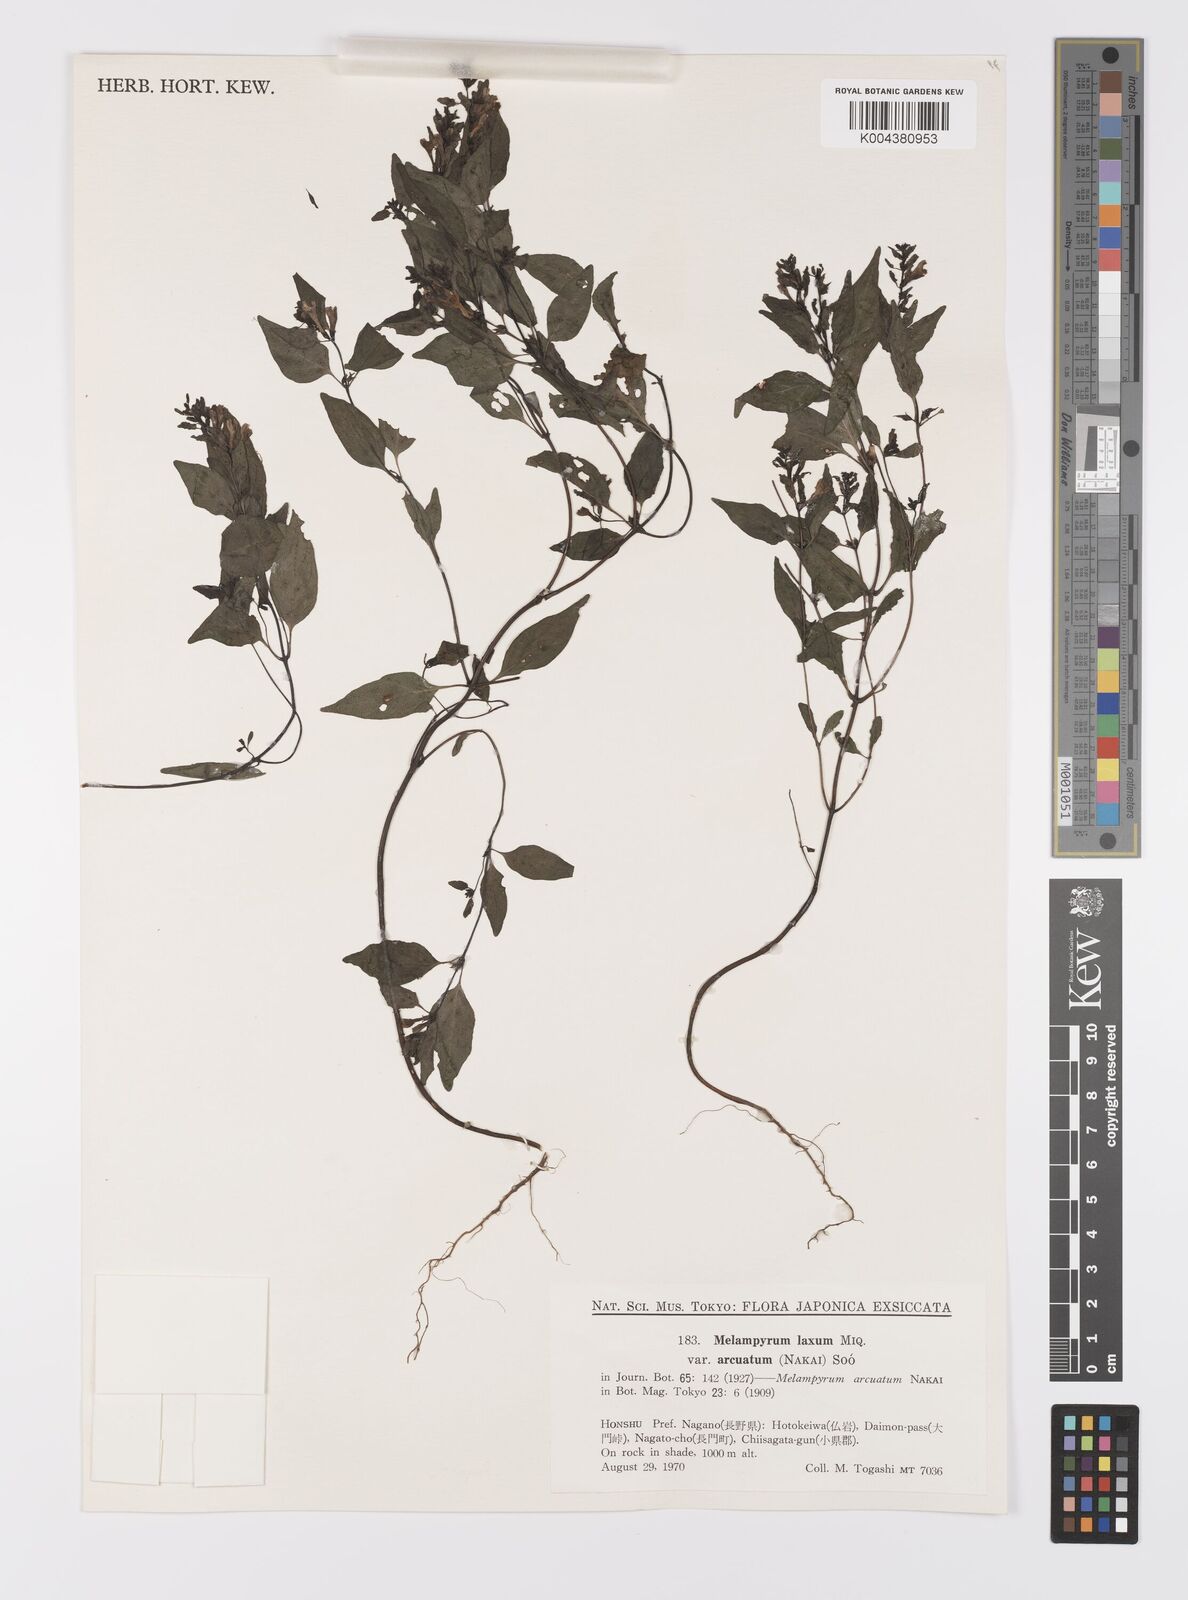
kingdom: Plantae
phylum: Tracheophyta
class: Magnoliopsida
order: Lamiales
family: Orobanchaceae
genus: Melampyrum
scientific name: Melampyrum laxum
